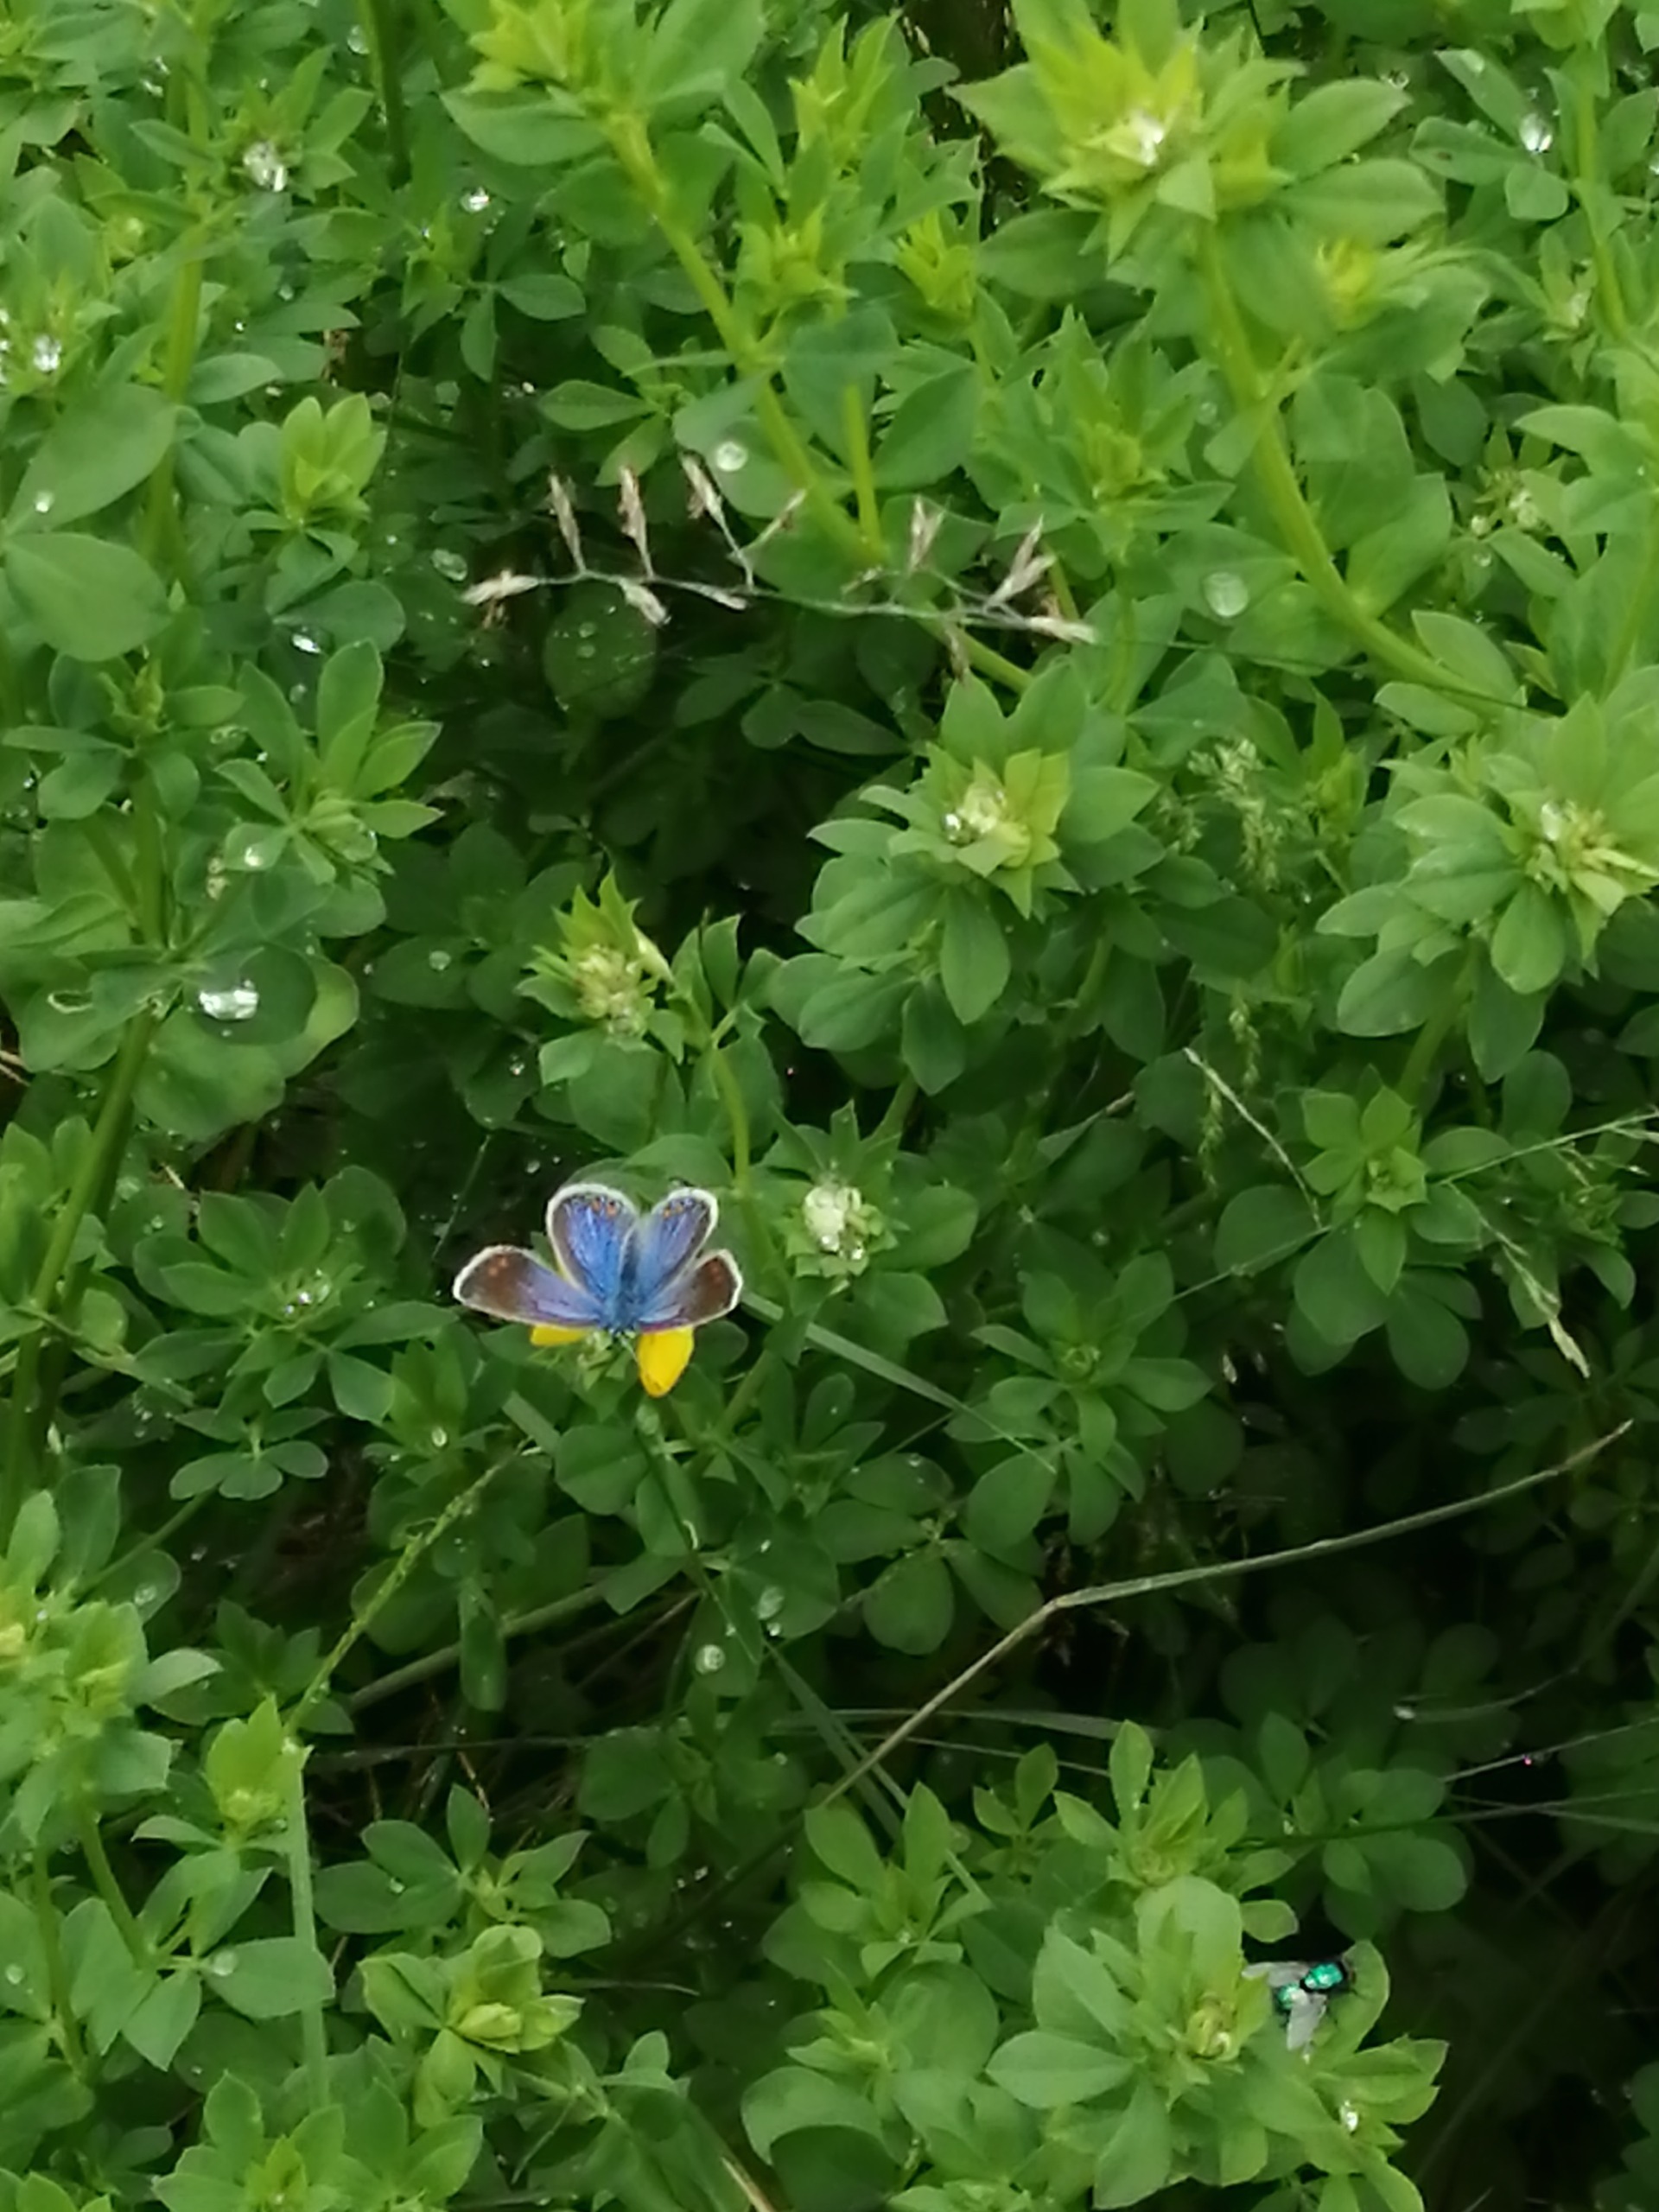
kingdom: Animalia
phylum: Arthropoda
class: Insecta
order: Lepidoptera
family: Lycaenidae
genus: Polyommatus
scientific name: Polyommatus icarus
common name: Almindelig blåfugl
